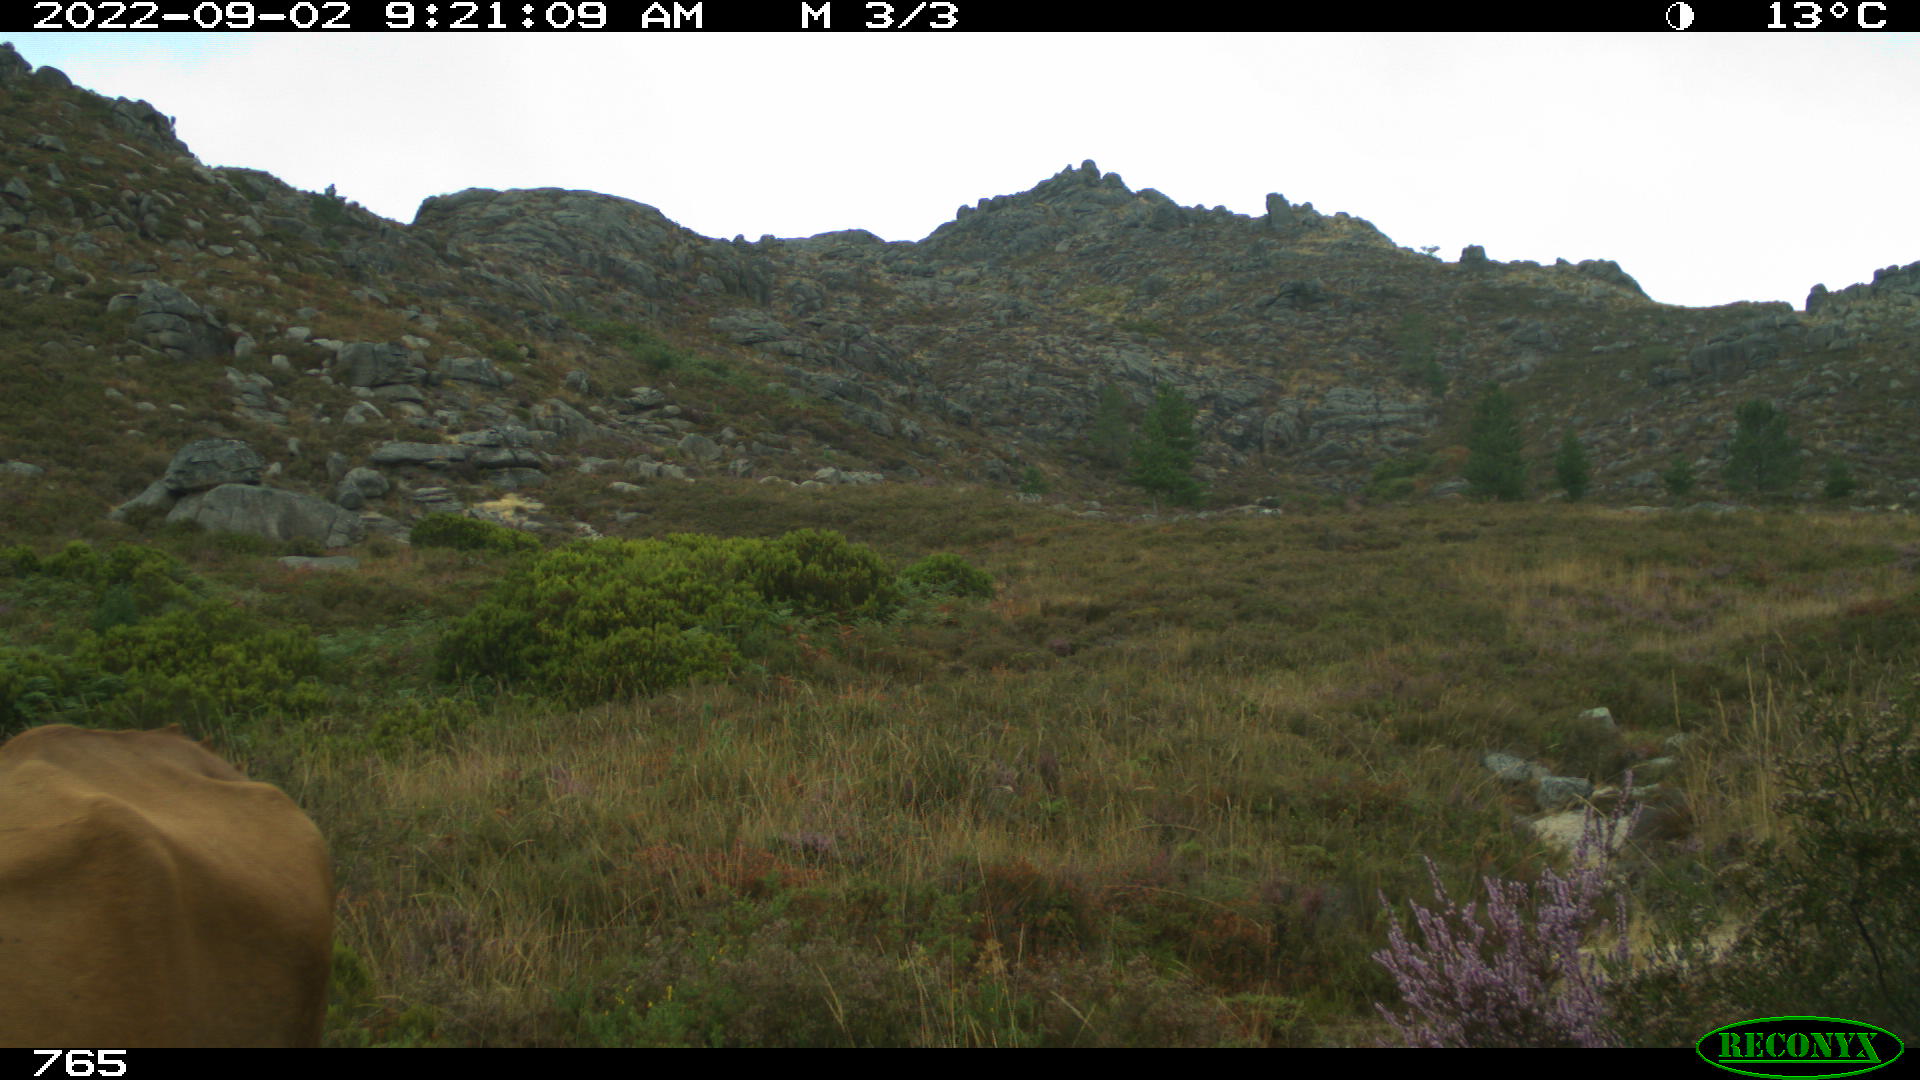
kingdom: Animalia
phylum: Chordata
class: Mammalia
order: Artiodactyla
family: Bovidae
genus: Bos
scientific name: Bos taurus
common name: Domesticated cattle
